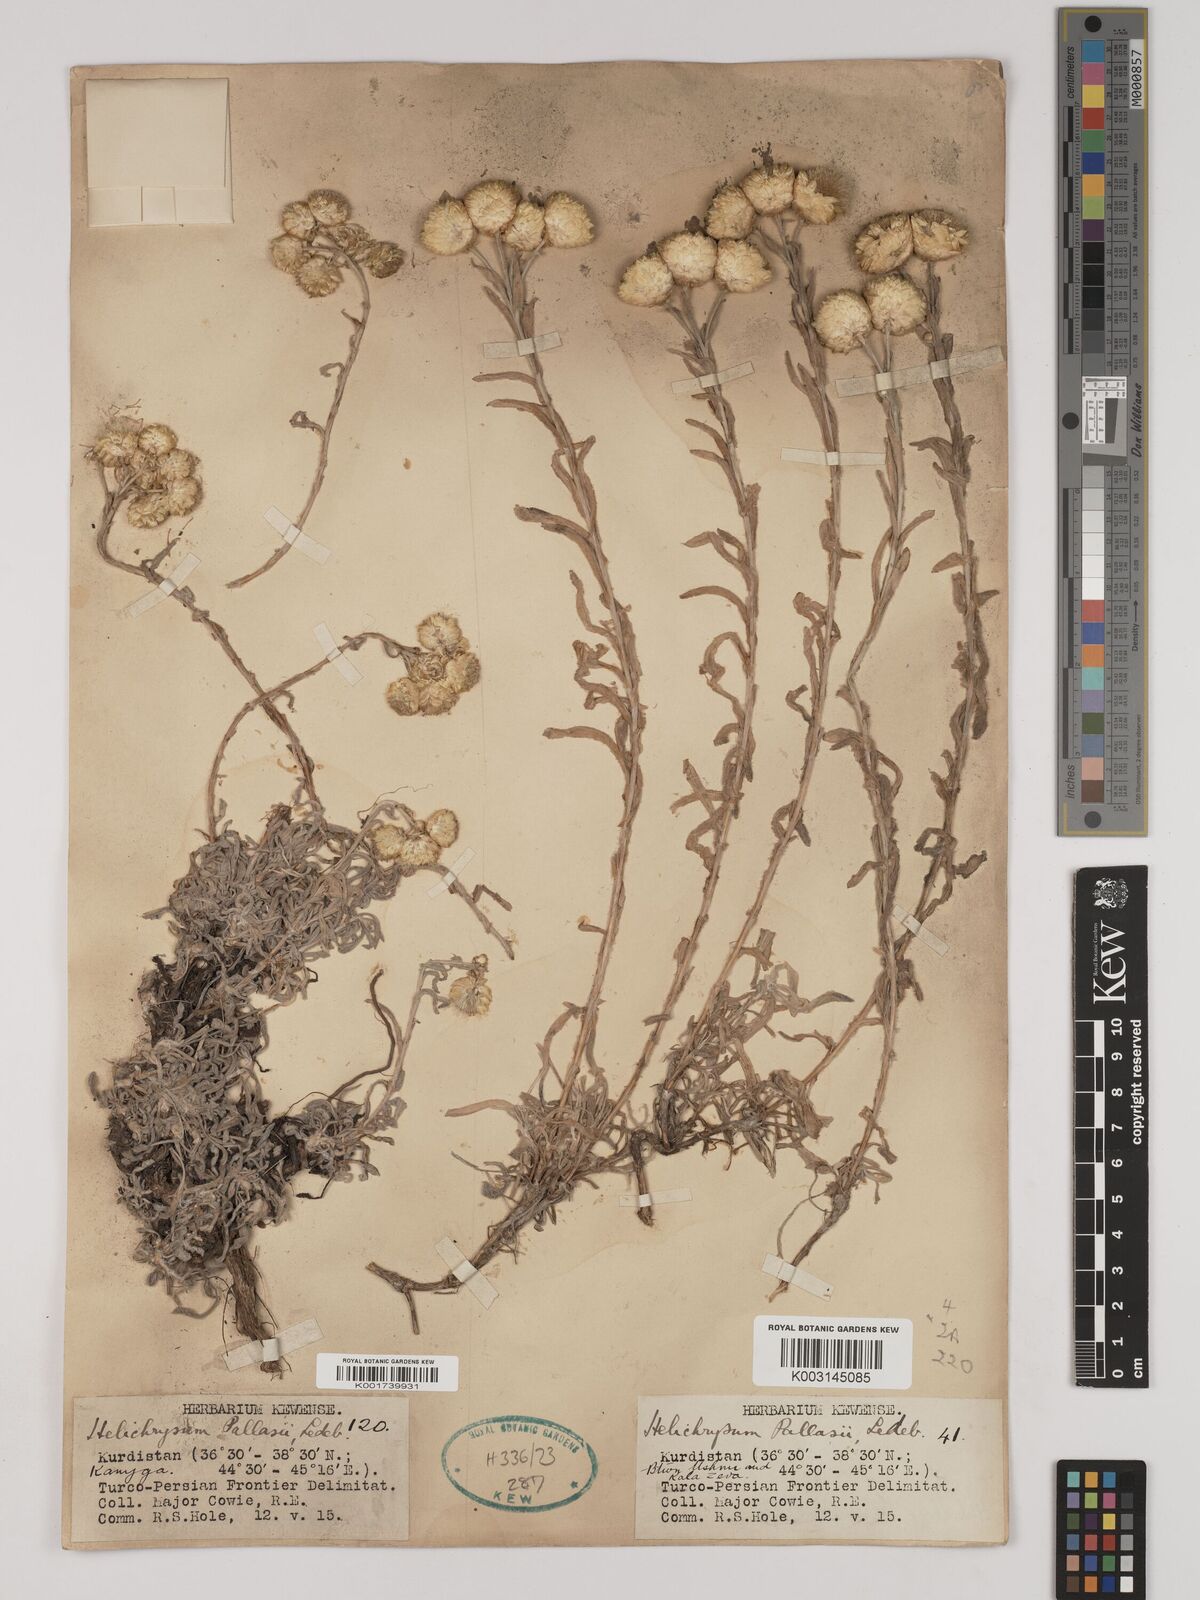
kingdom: Plantae
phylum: Tracheophyta
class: Magnoliopsida
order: Asterales
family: Asteraceae
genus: Helichrysum
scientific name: Helichrysum pallasii
